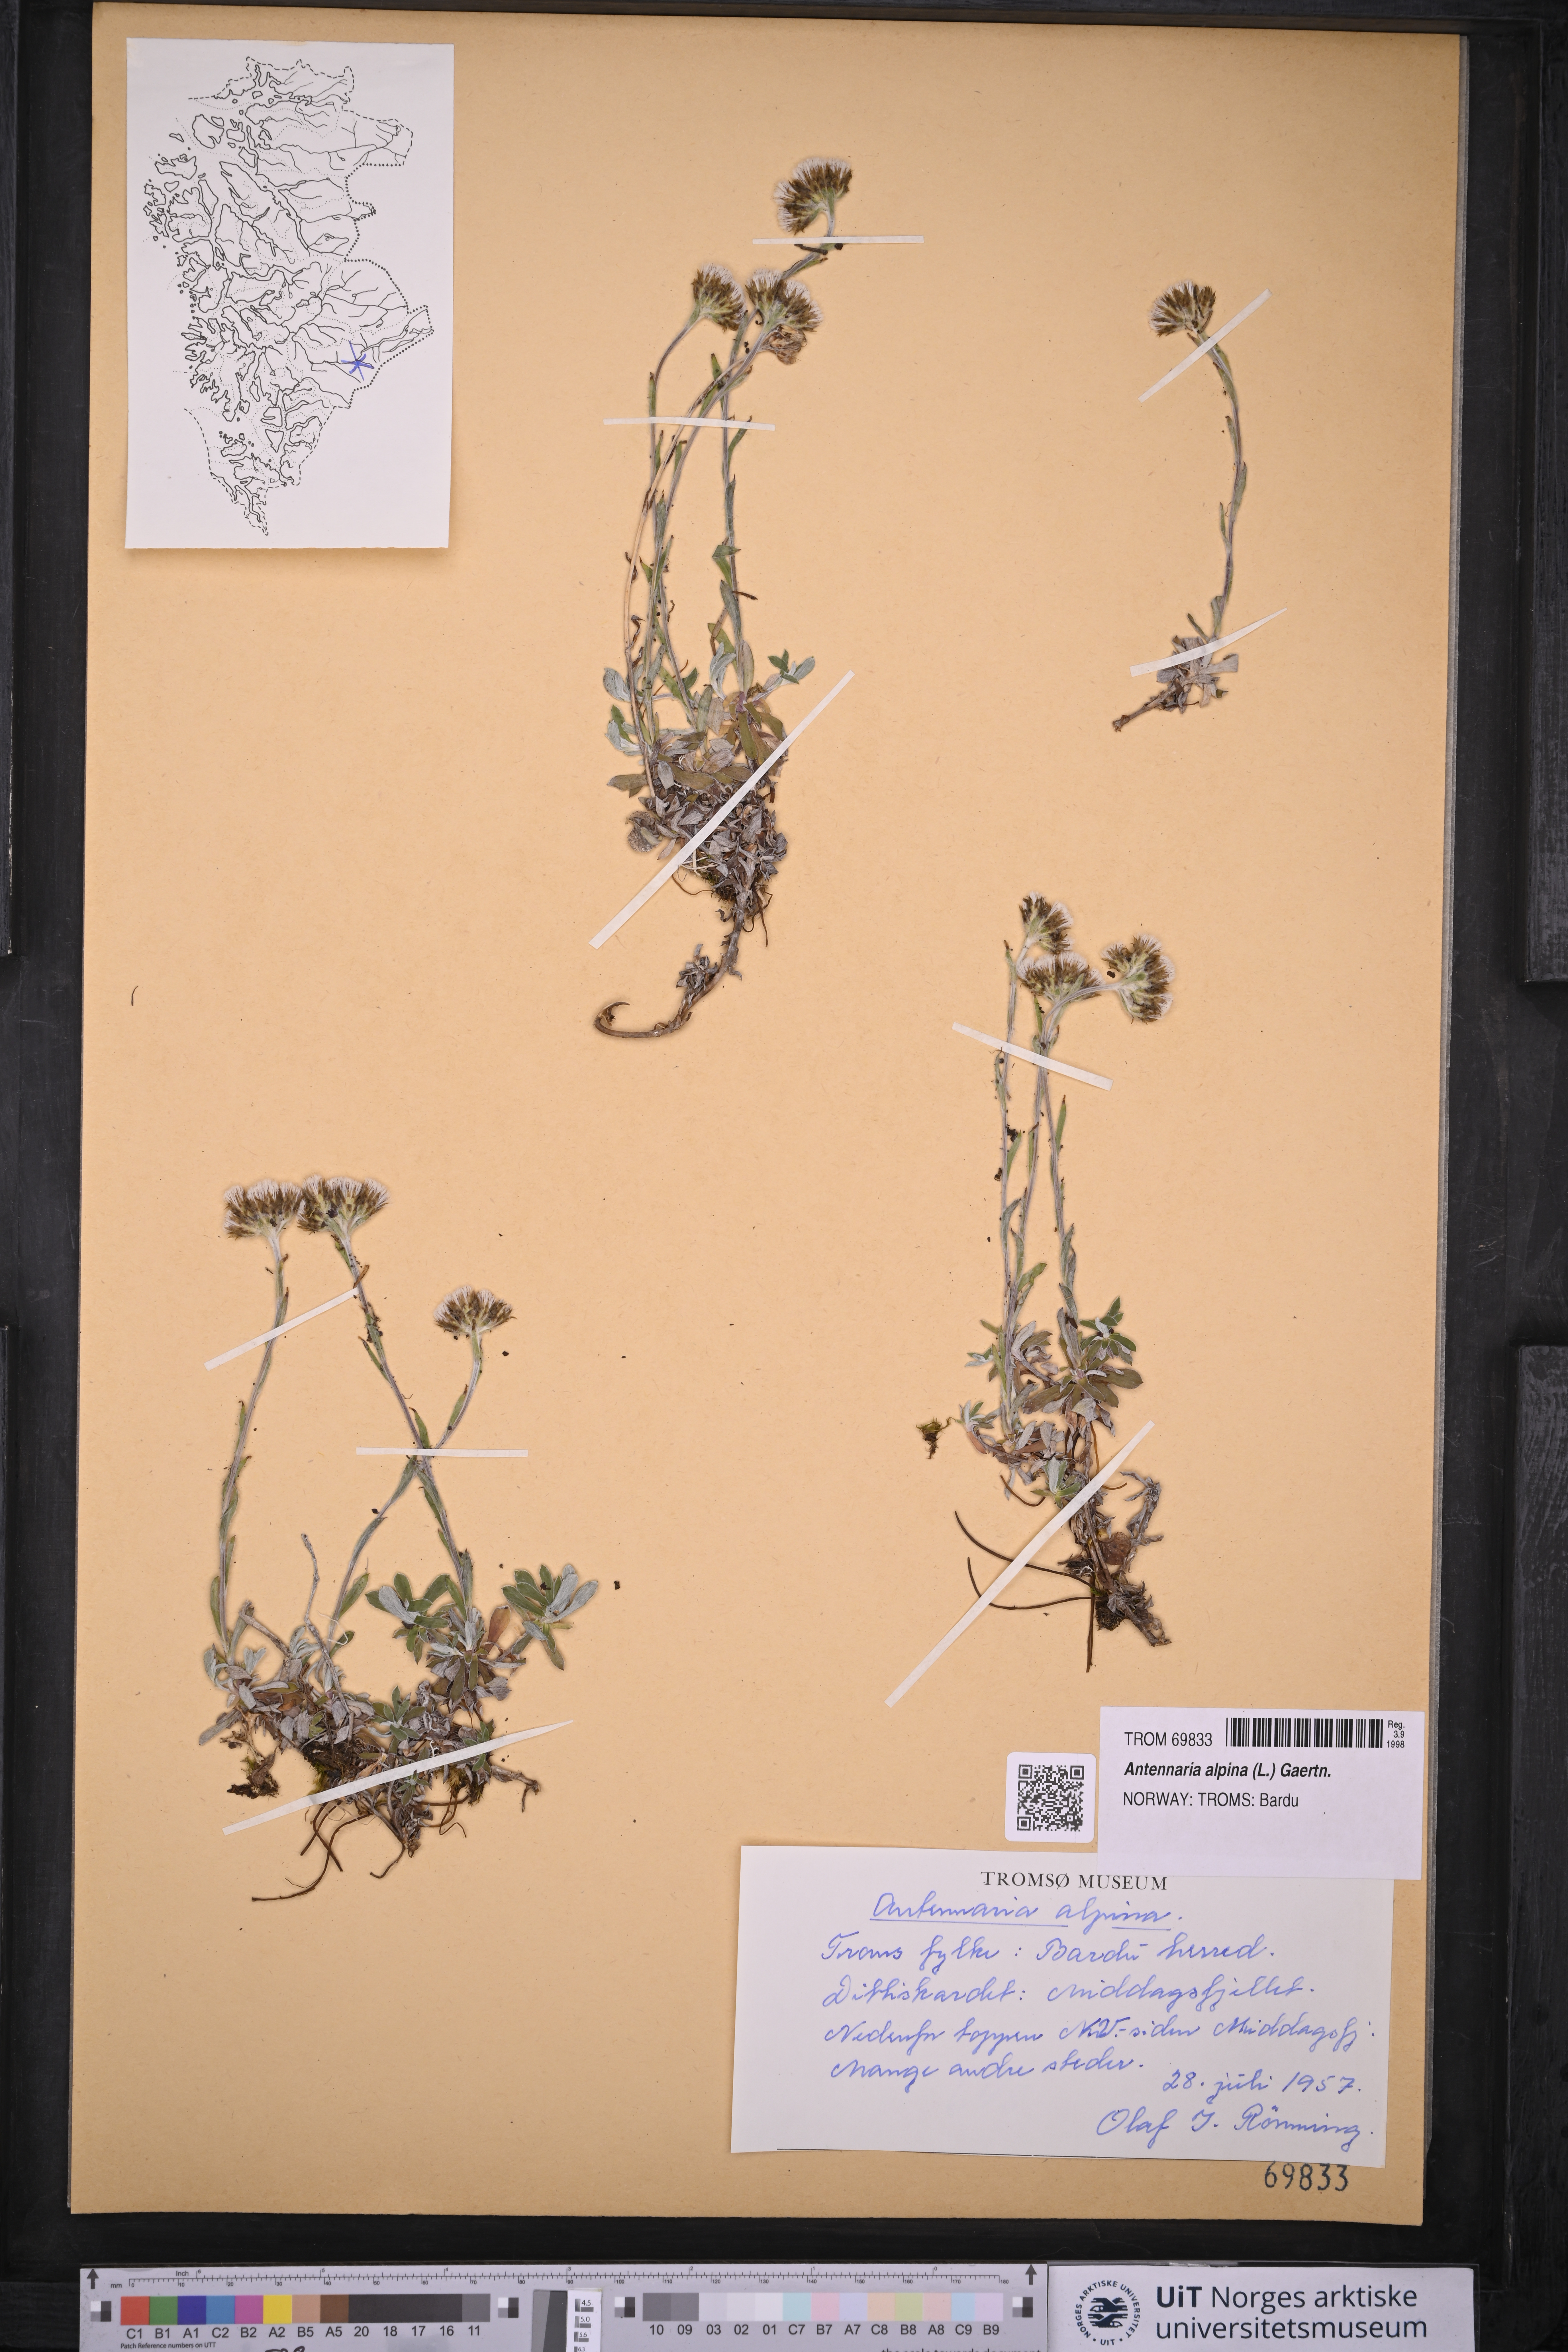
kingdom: Plantae
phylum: Tracheophyta
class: Magnoliopsida
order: Asterales
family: Asteraceae
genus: Antennaria
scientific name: Antennaria alpina
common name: Alpine pussytoes
